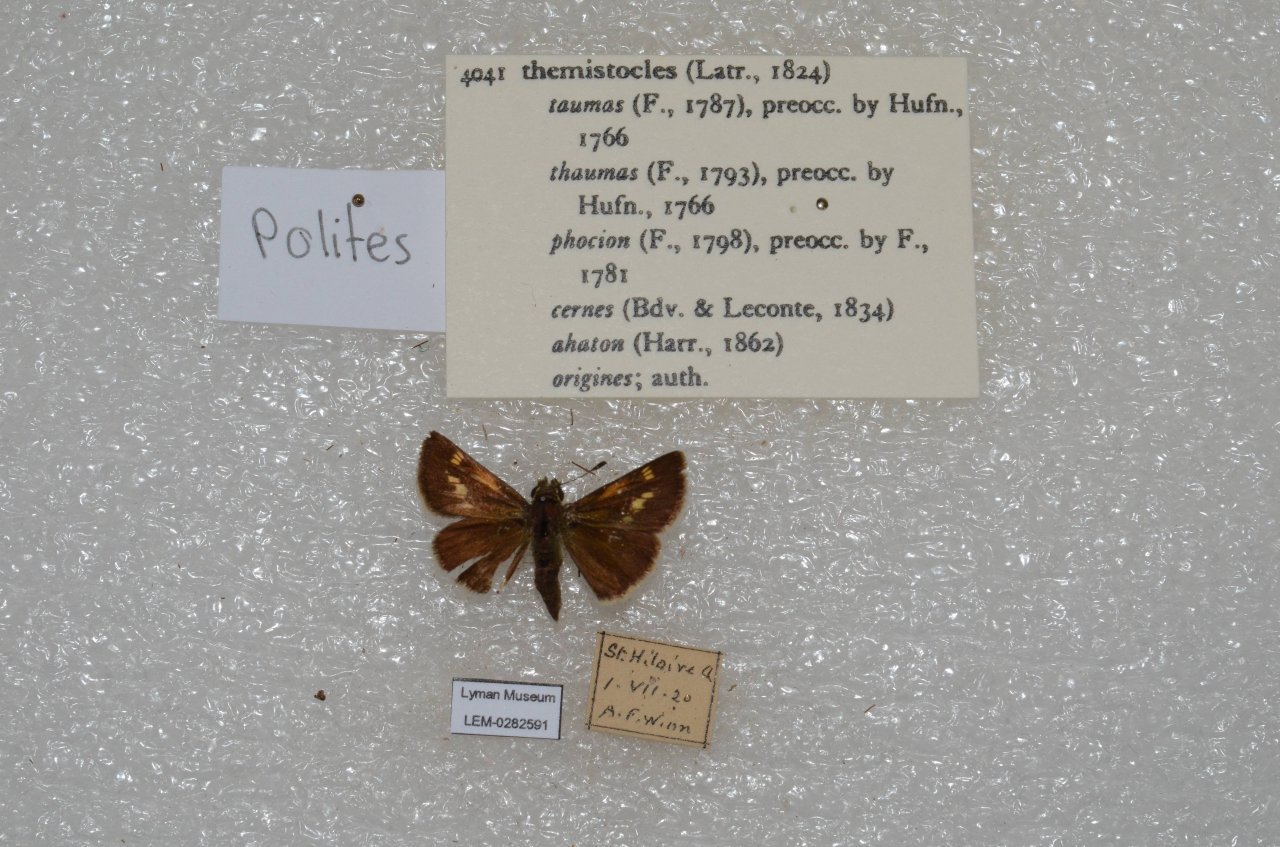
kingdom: Animalia
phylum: Arthropoda
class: Insecta
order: Lepidoptera
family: Hesperiidae
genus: Polites
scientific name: Polites themistocles
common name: Tawny-edged Skipper
